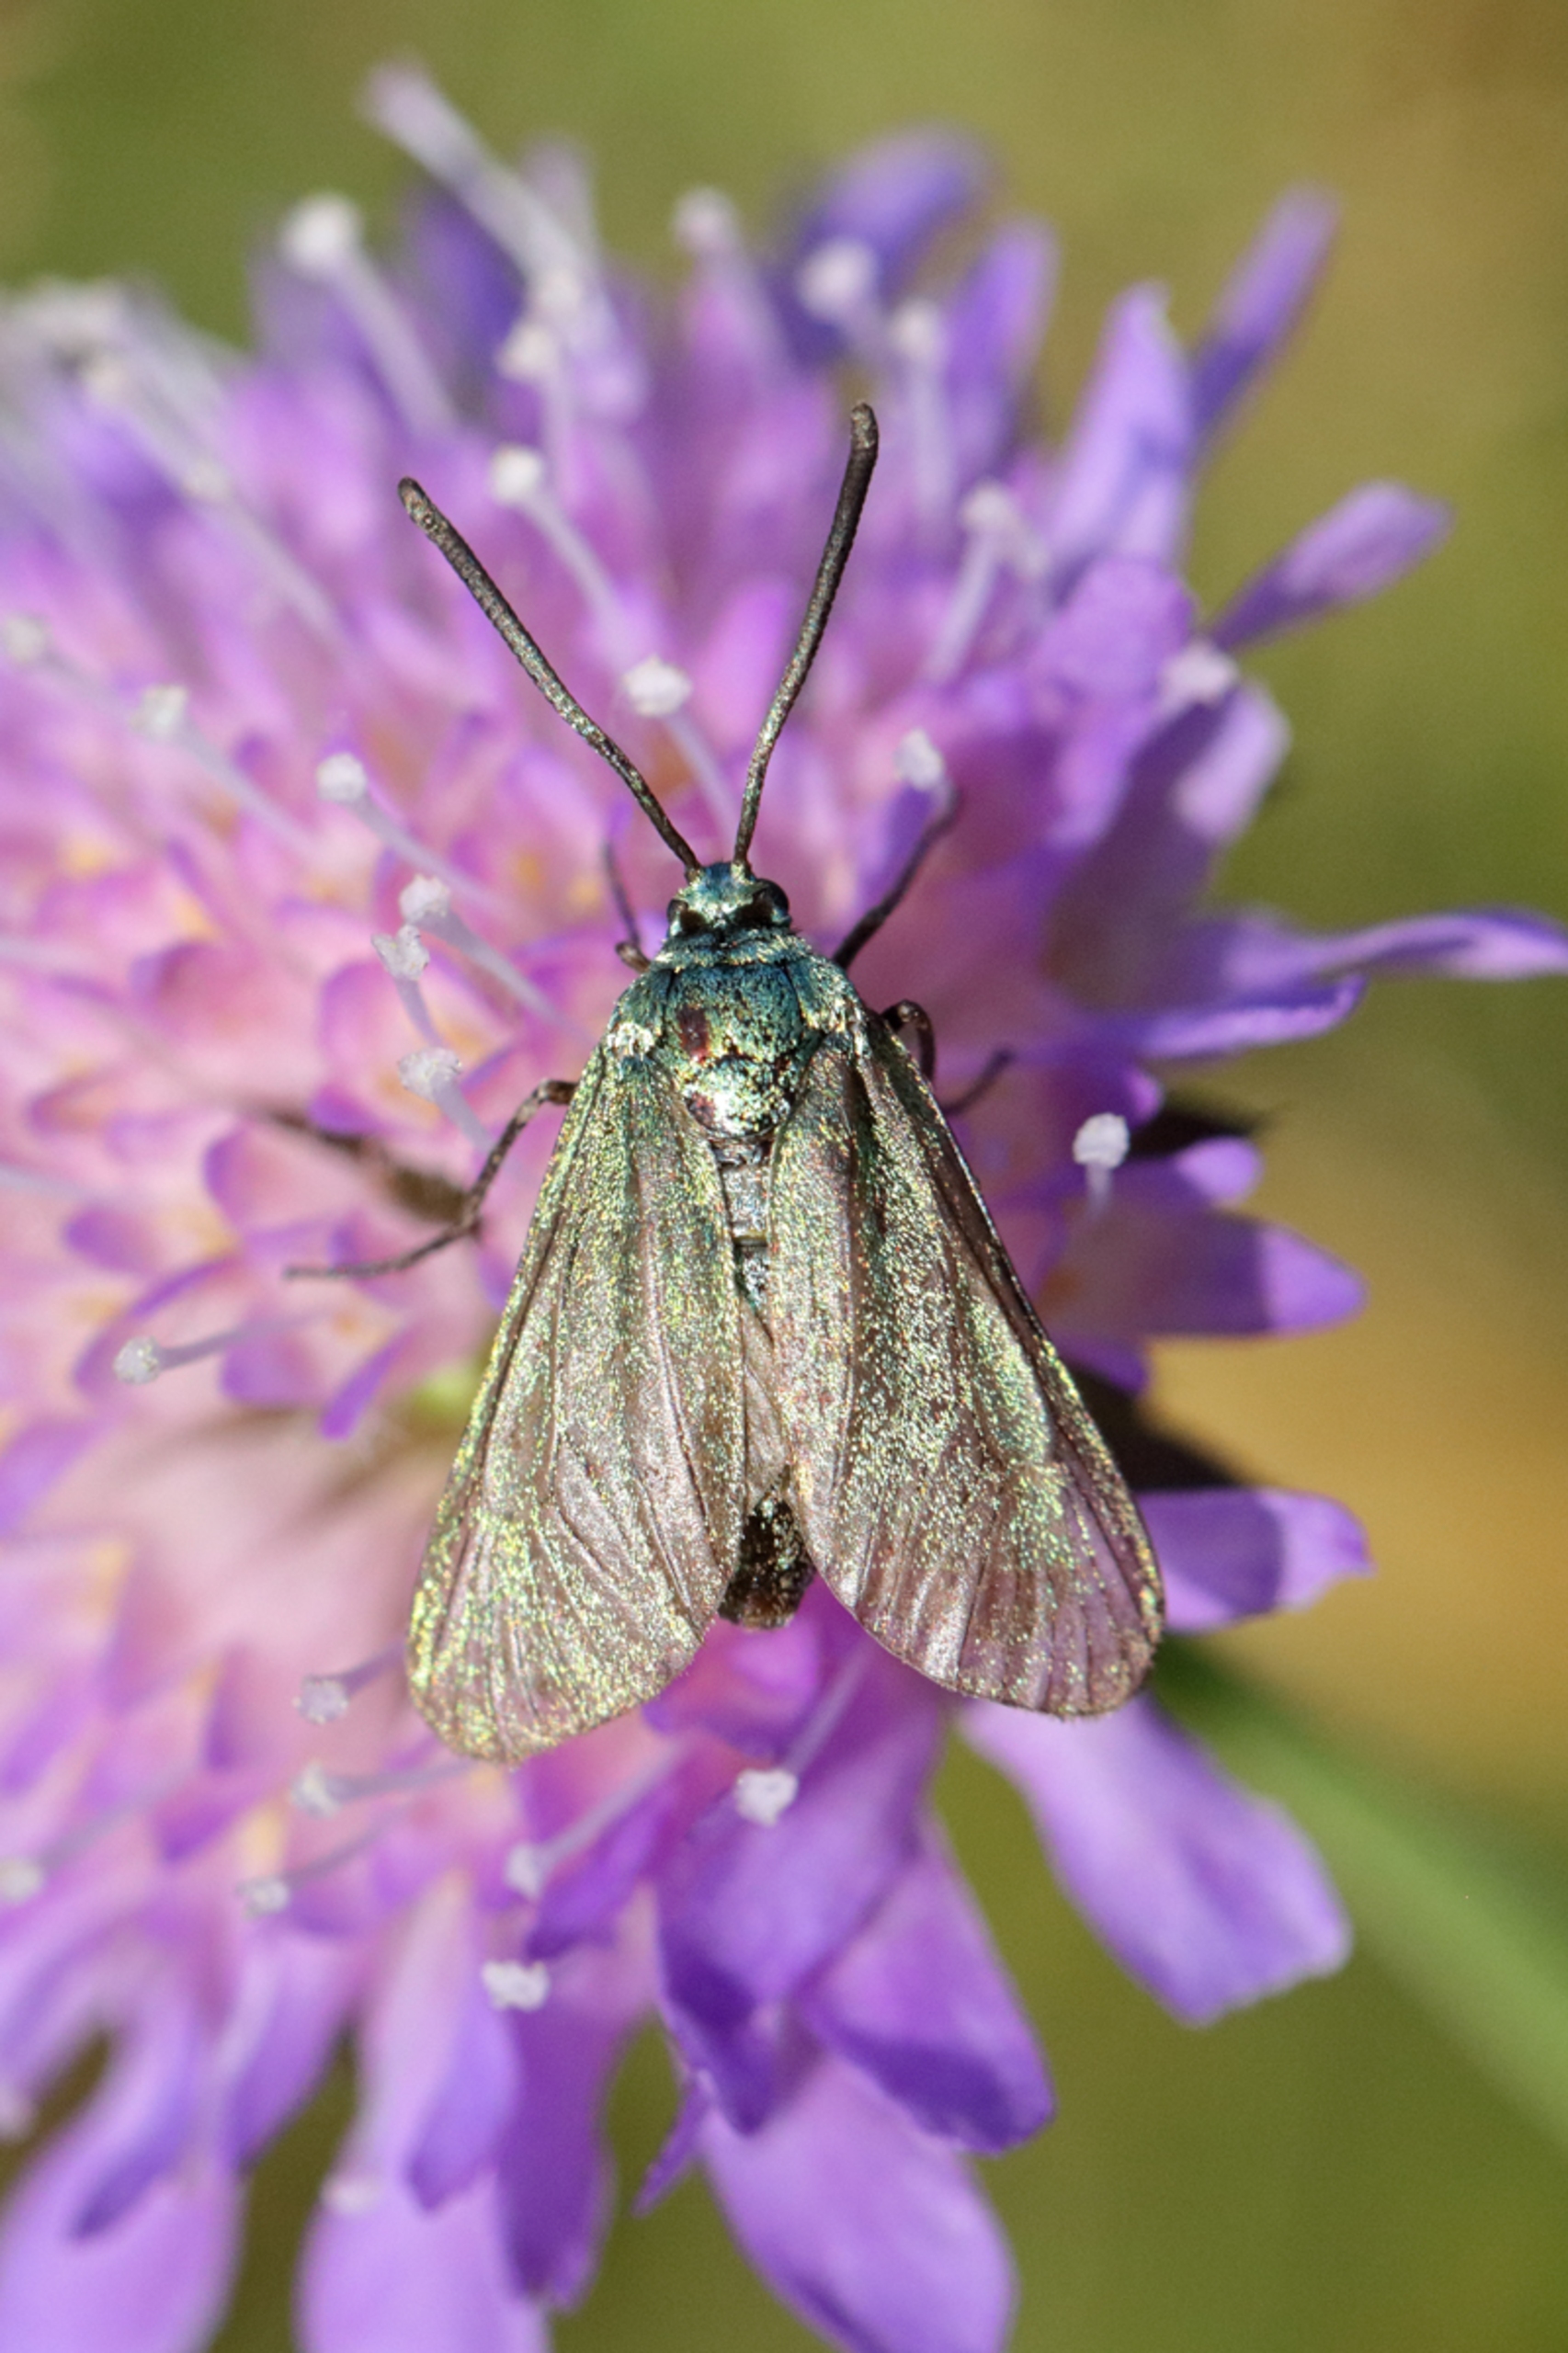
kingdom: Animalia
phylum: Arthropoda
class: Insecta
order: Lepidoptera
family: Zygaenidae
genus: Adscita
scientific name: Adscita statices
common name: Metalvinge
